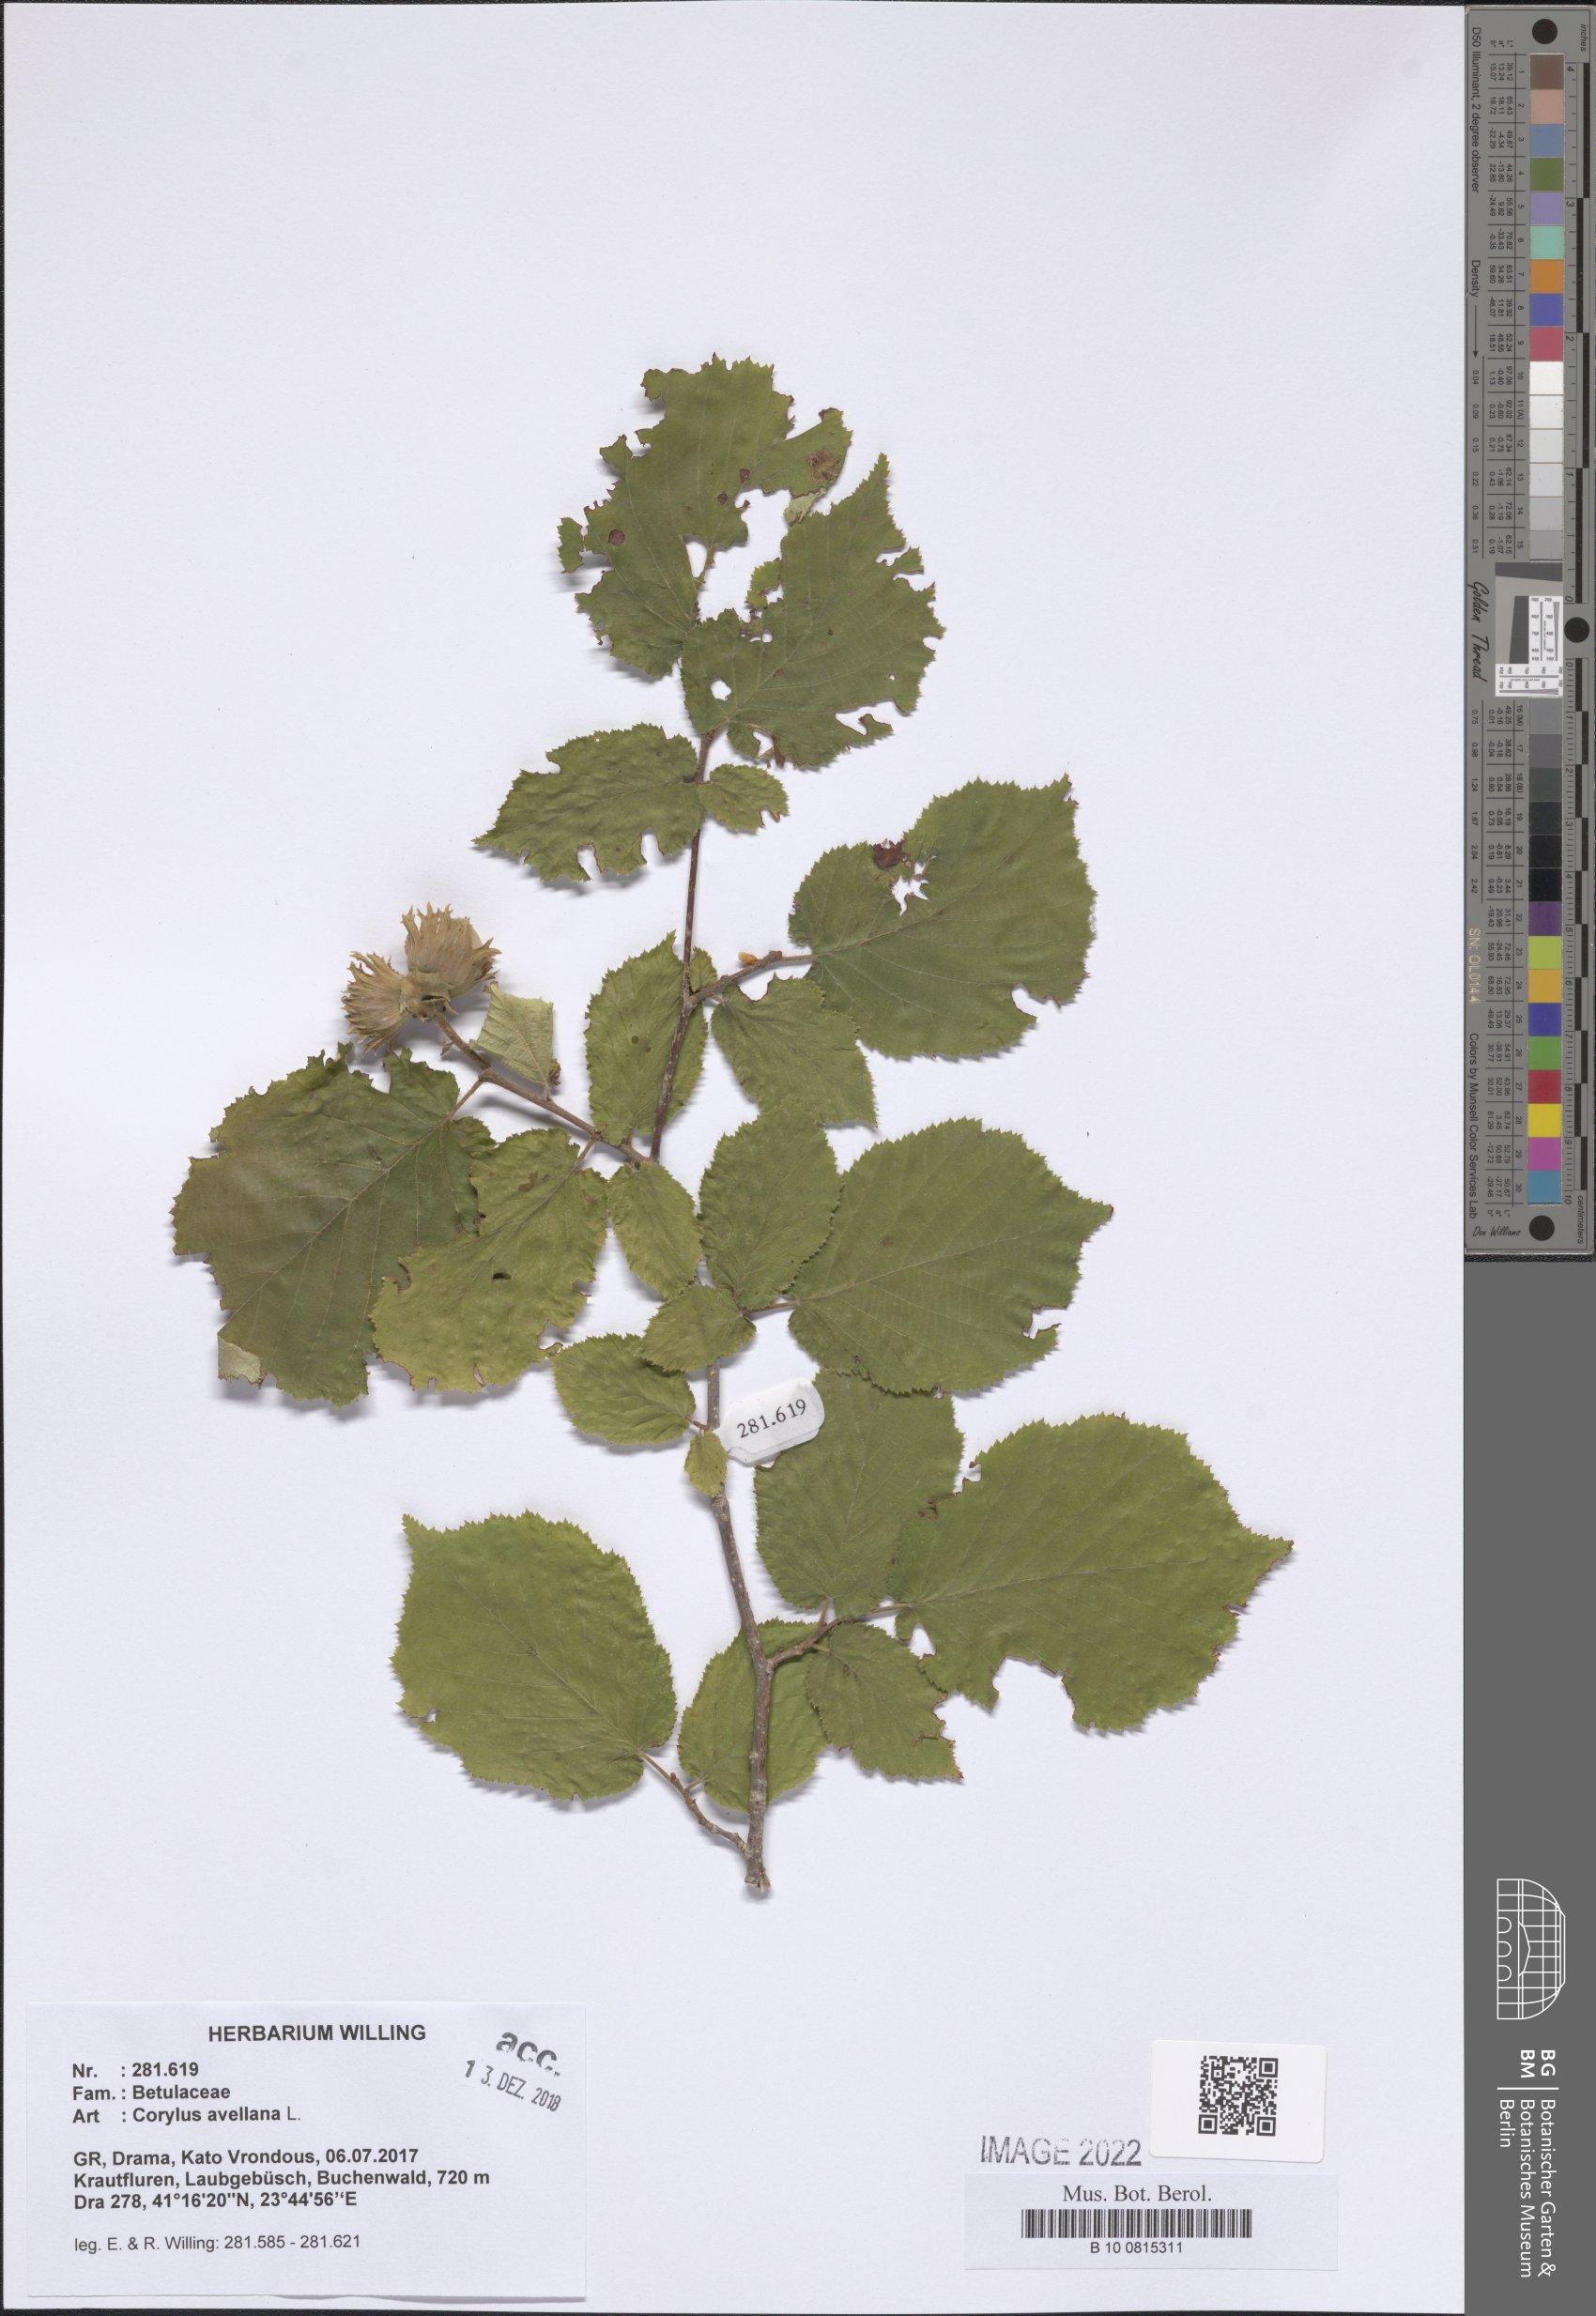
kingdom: Plantae
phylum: Tracheophyta
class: Magnoliopsida
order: Fagales
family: Betulaceae
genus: Corylus
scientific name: Corylus avellana
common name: European hazel
